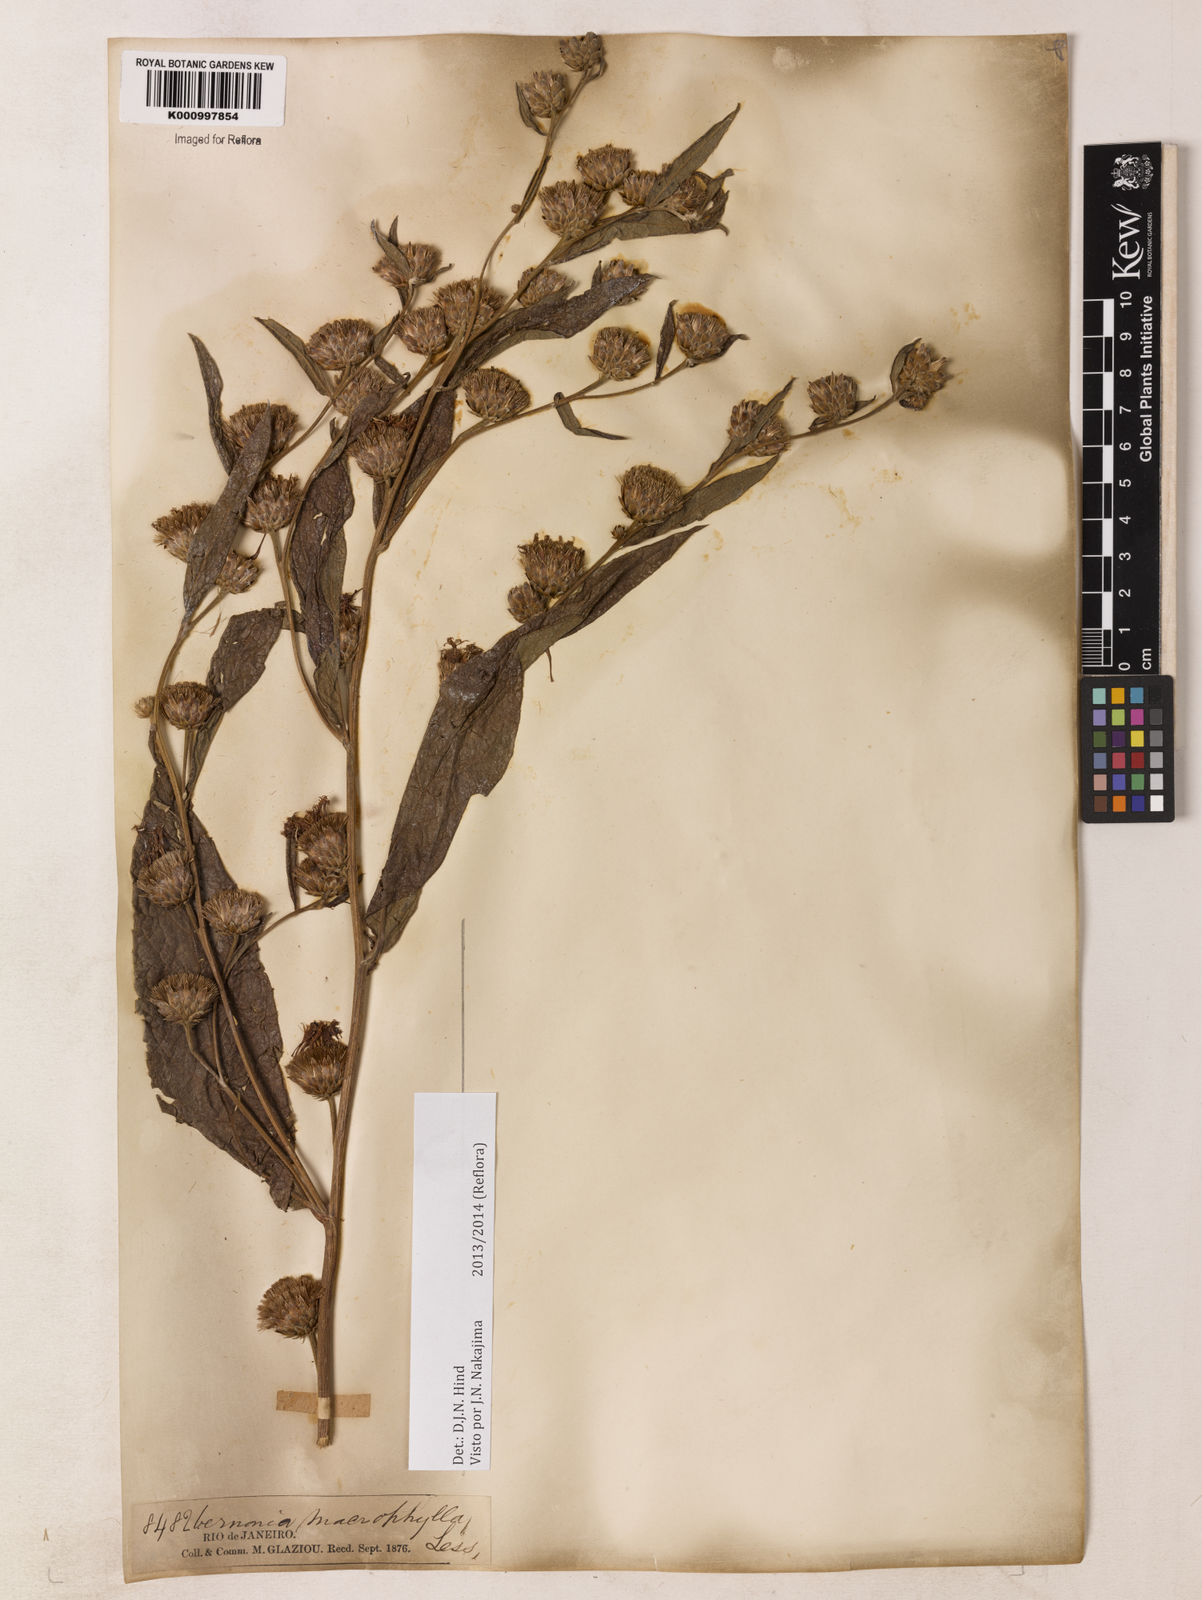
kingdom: Plantae
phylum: Tracheophyta
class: Magnoliopsida
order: Asterales
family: Asteraceae
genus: Lessingianthus
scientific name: Lessingianthus macrophyllus
